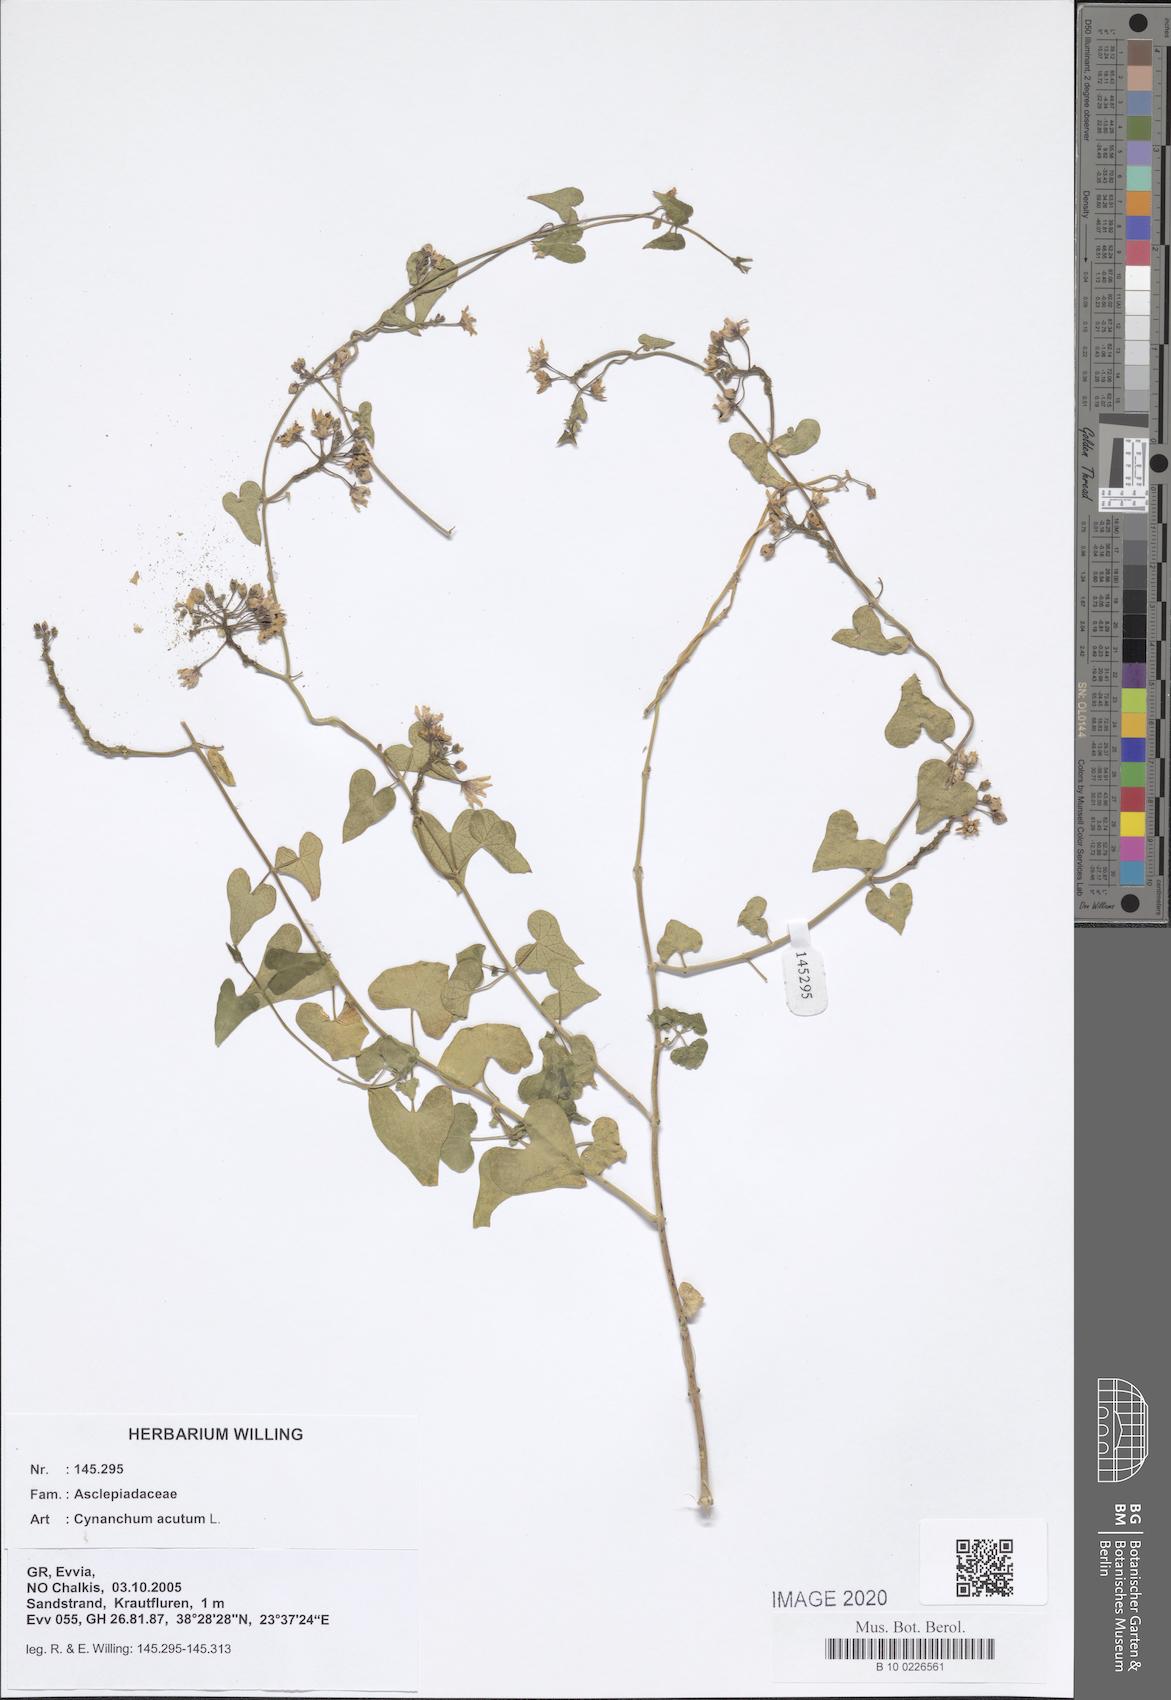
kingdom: Plantae
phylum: Tracheophyta
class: Magnoliopsida
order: Gentianales
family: Apocynaceae
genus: Cynanchum
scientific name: Cynanchum acutum
